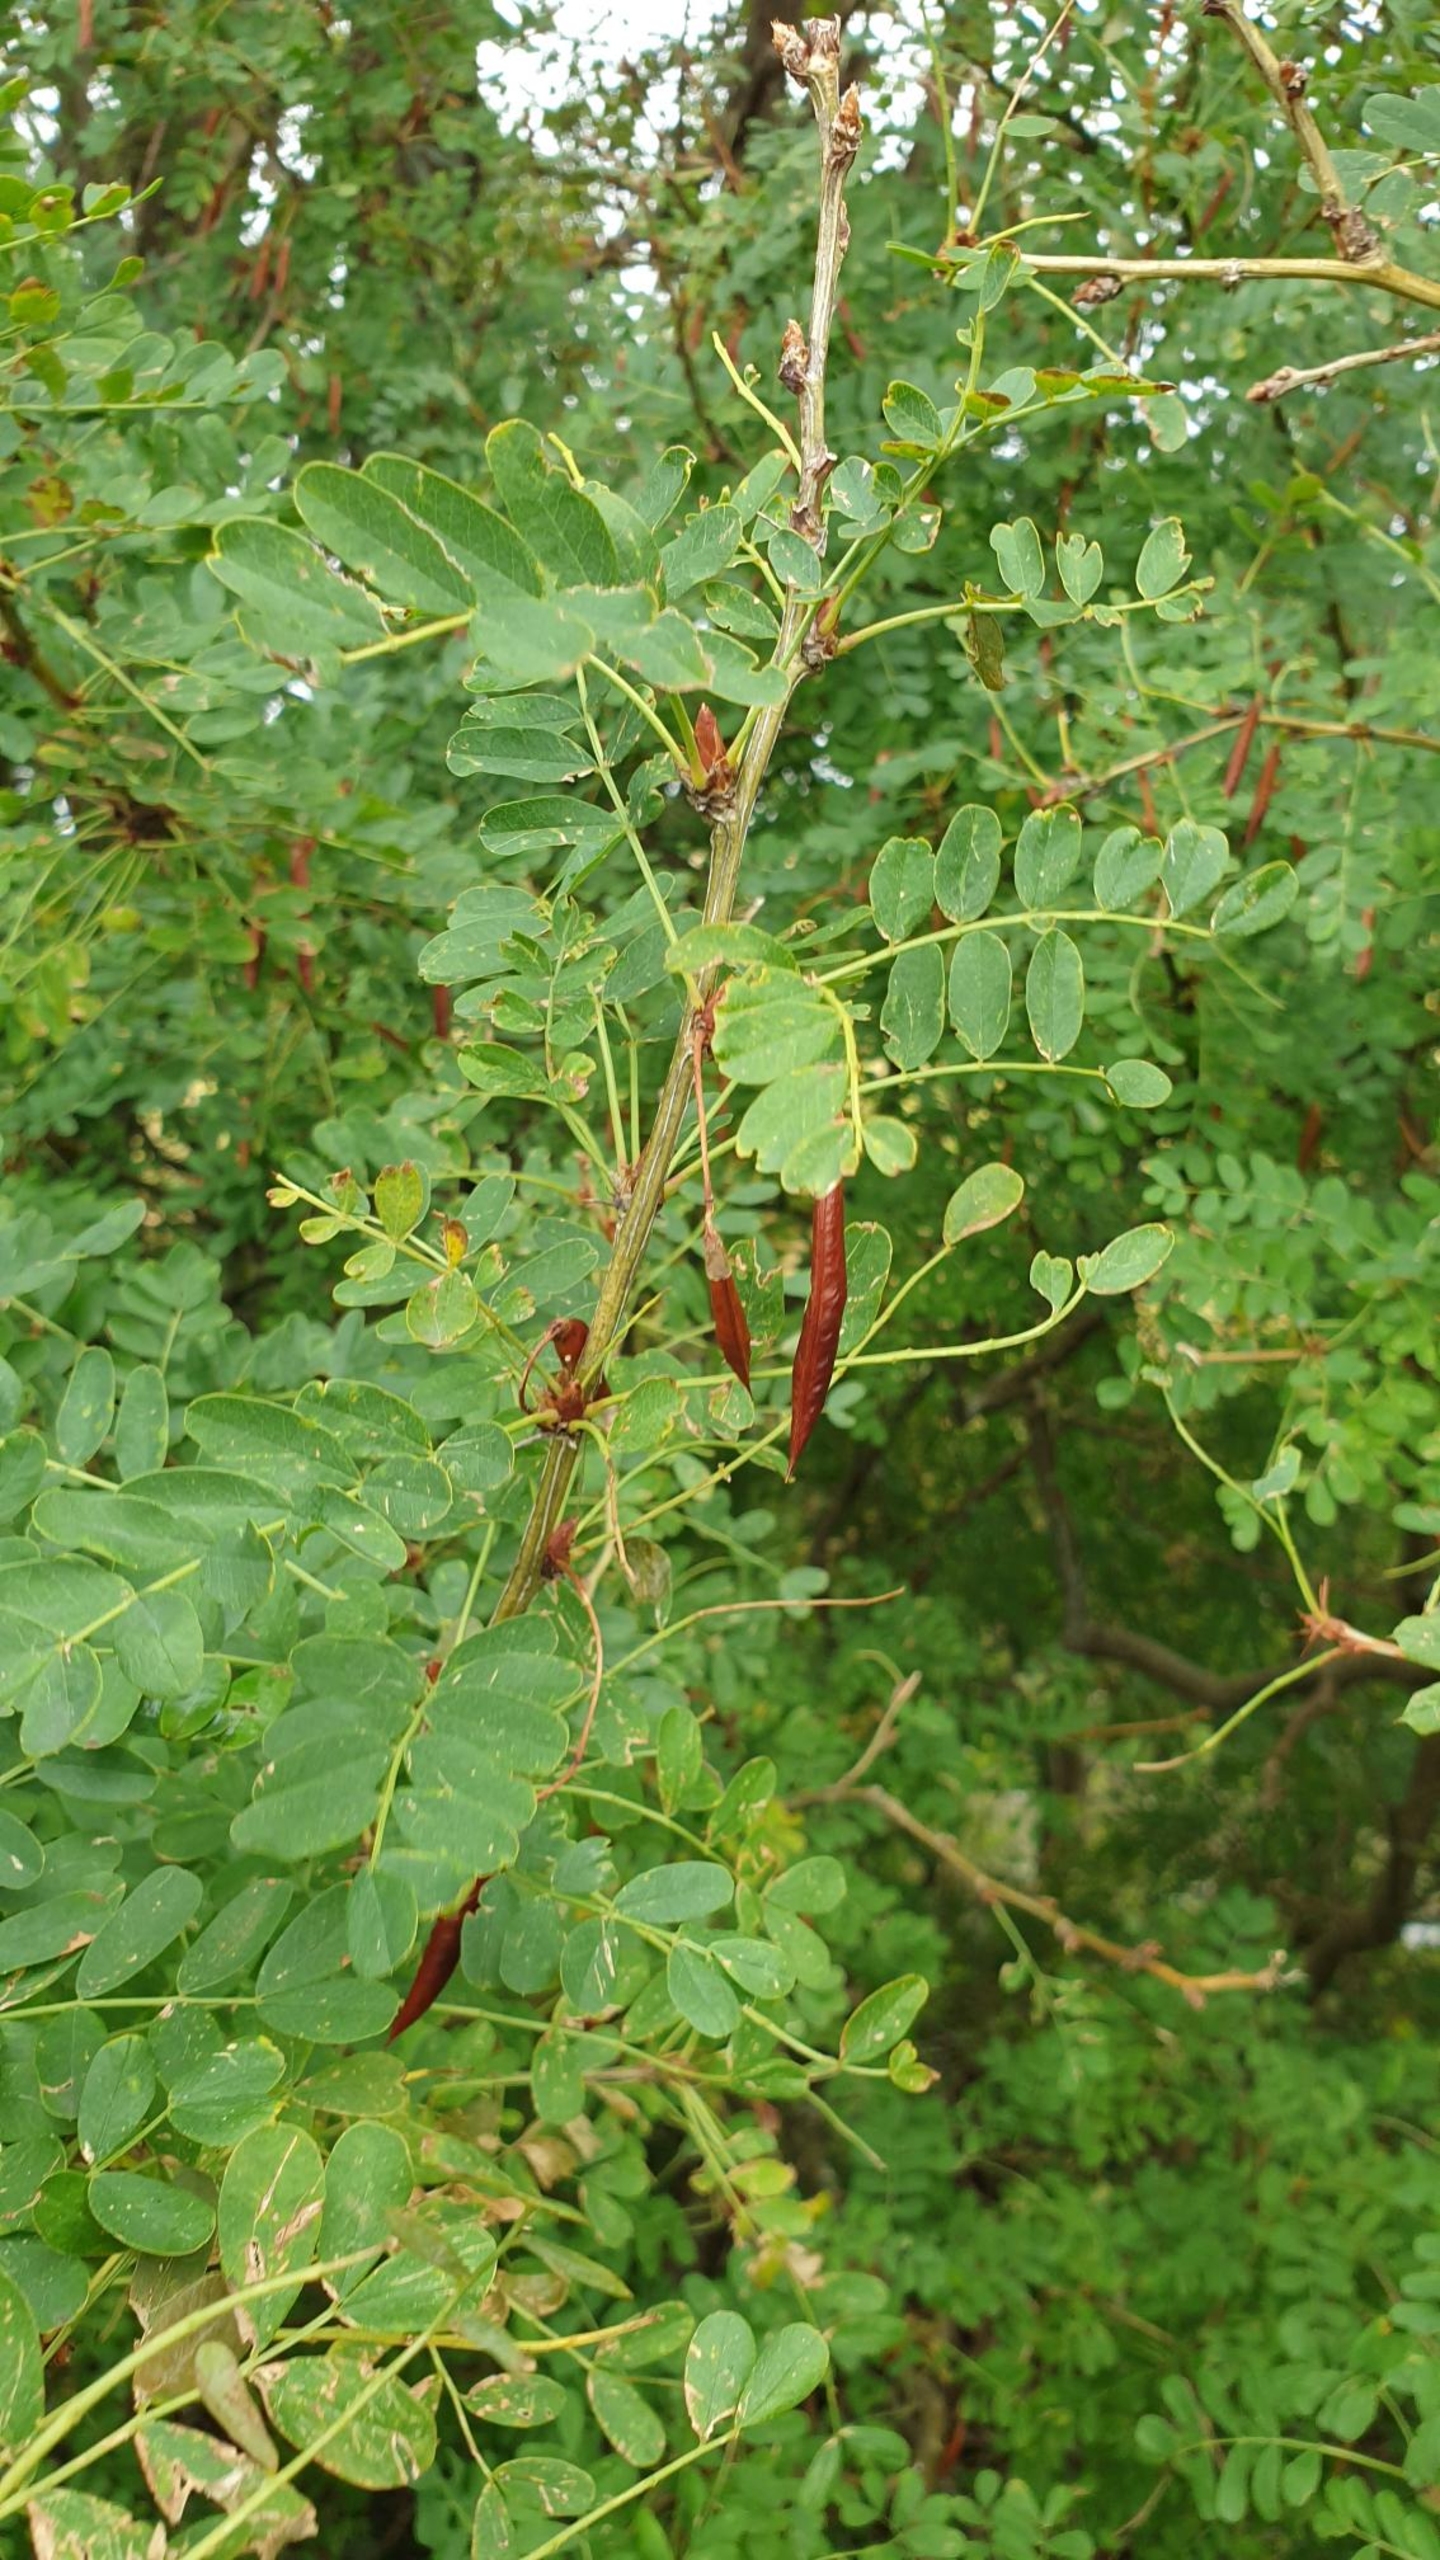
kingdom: Plantae
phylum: Tracheophyta
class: Magnoliopsida
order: Fabales
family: Fabaceae
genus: Caragana
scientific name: Caragana arborescens
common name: Ærtebusk
